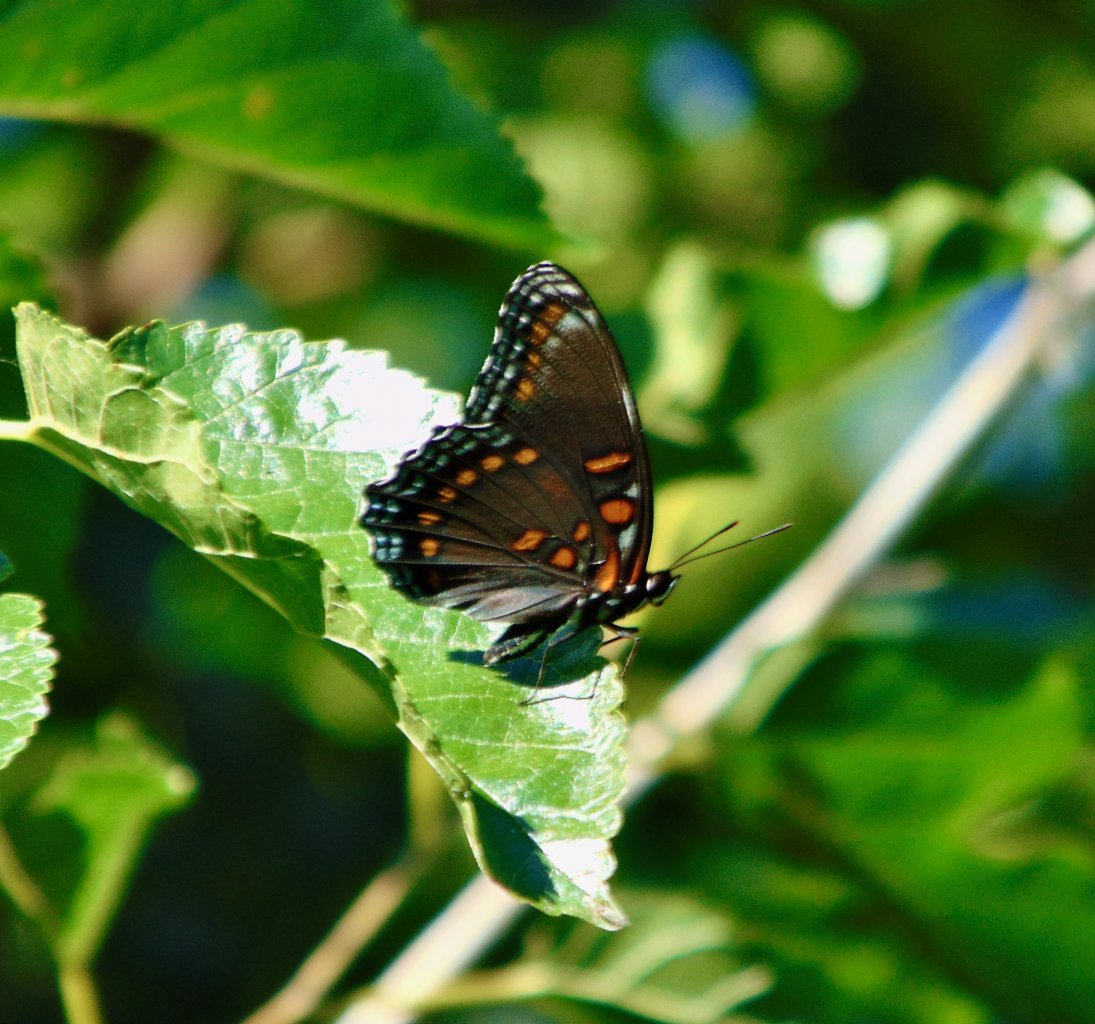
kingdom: Animalia
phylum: Arthropoda
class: Insecta
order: Lepidoptera
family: Nymphalidae
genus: Limenitis
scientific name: Limenitis astyanax
